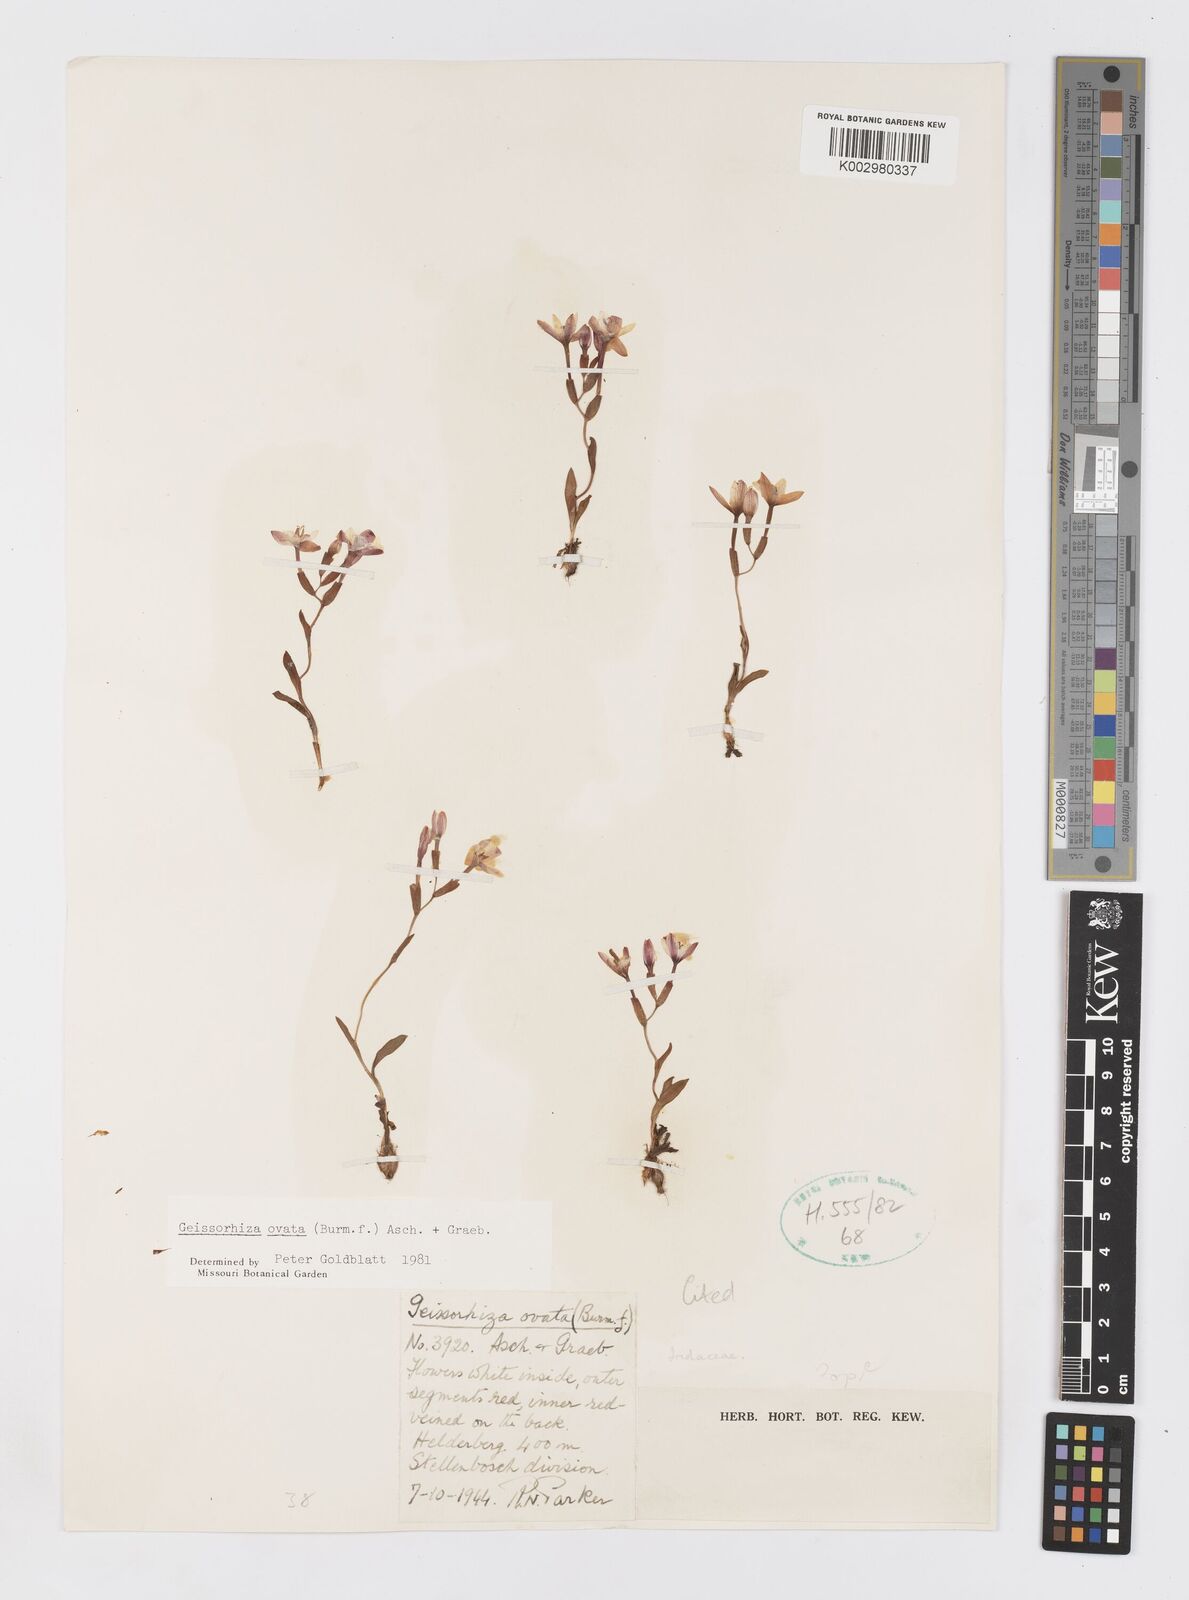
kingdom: Plantae
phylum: Tracheophyta
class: Liliopsida
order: Asparagales
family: Iridaceae
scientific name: Iridaceae
